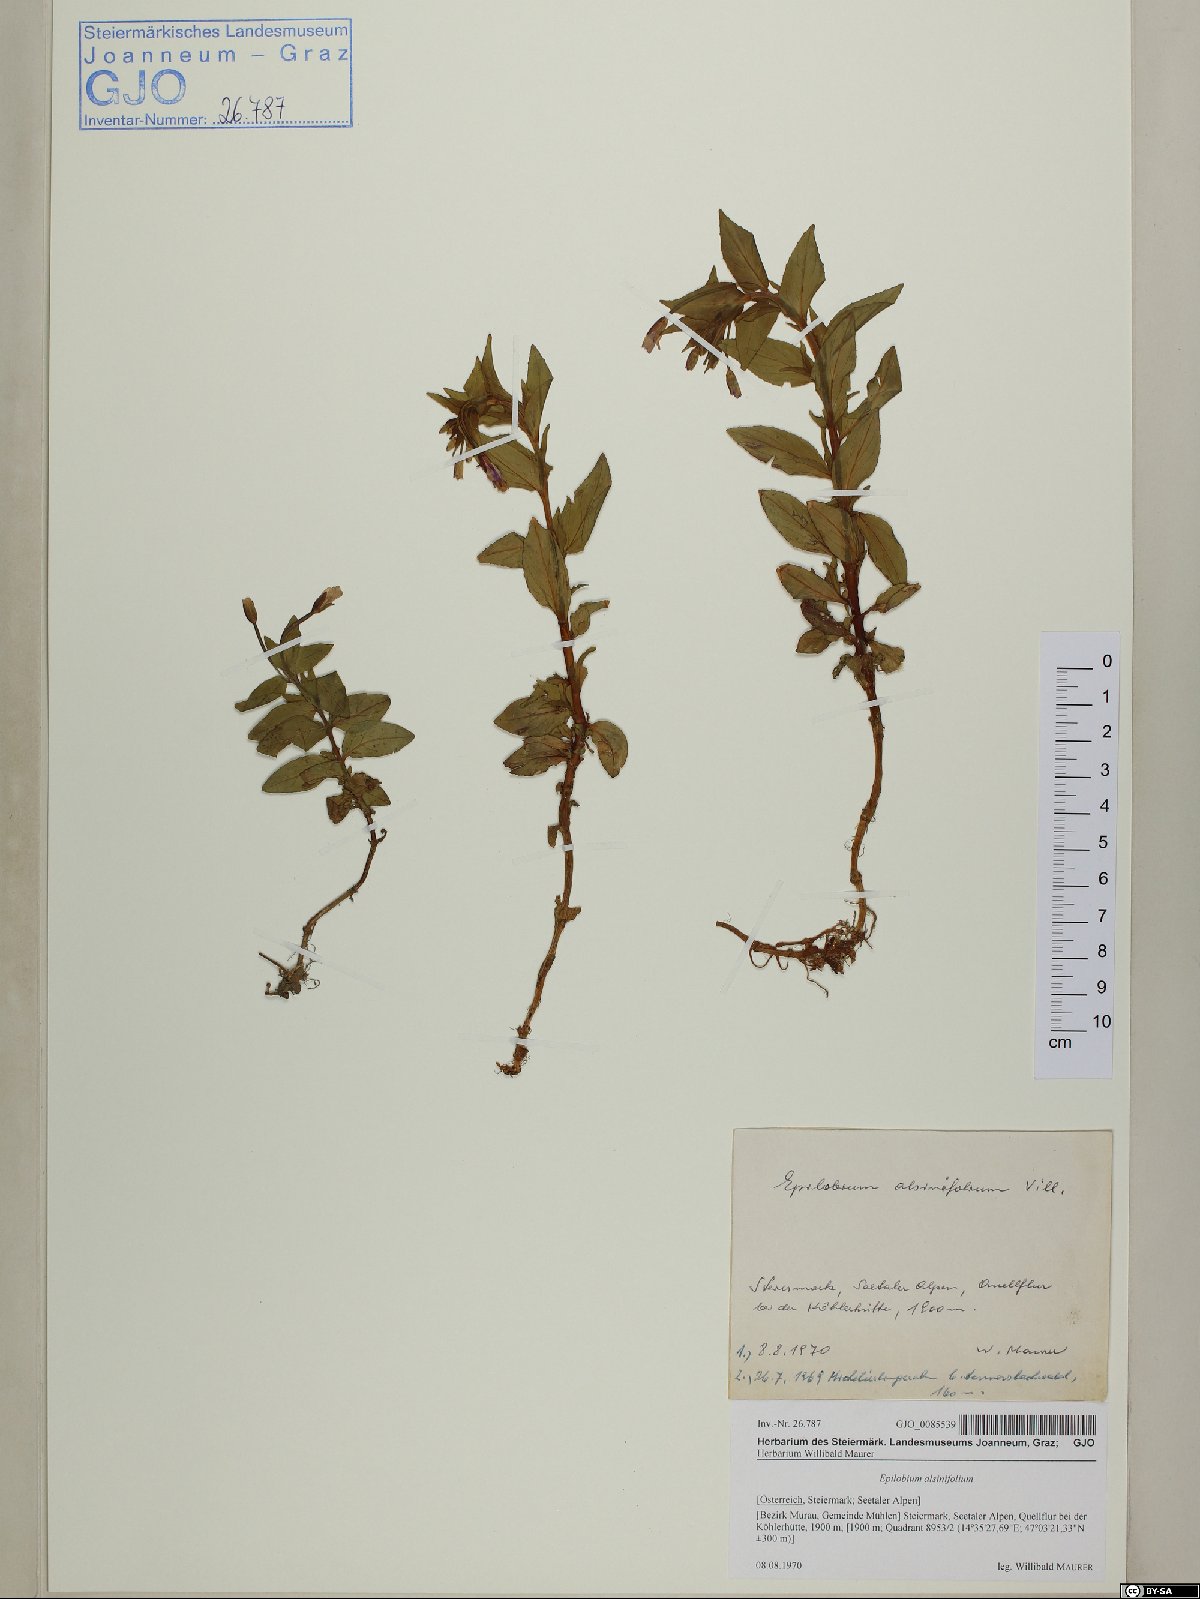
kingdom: Plantae
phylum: Tracheophyta
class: Magnoliopsida
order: Myrtales
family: Onagraceae
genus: Epilobium
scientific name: Epilobium alsinifolium
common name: Chickweed willowherb
